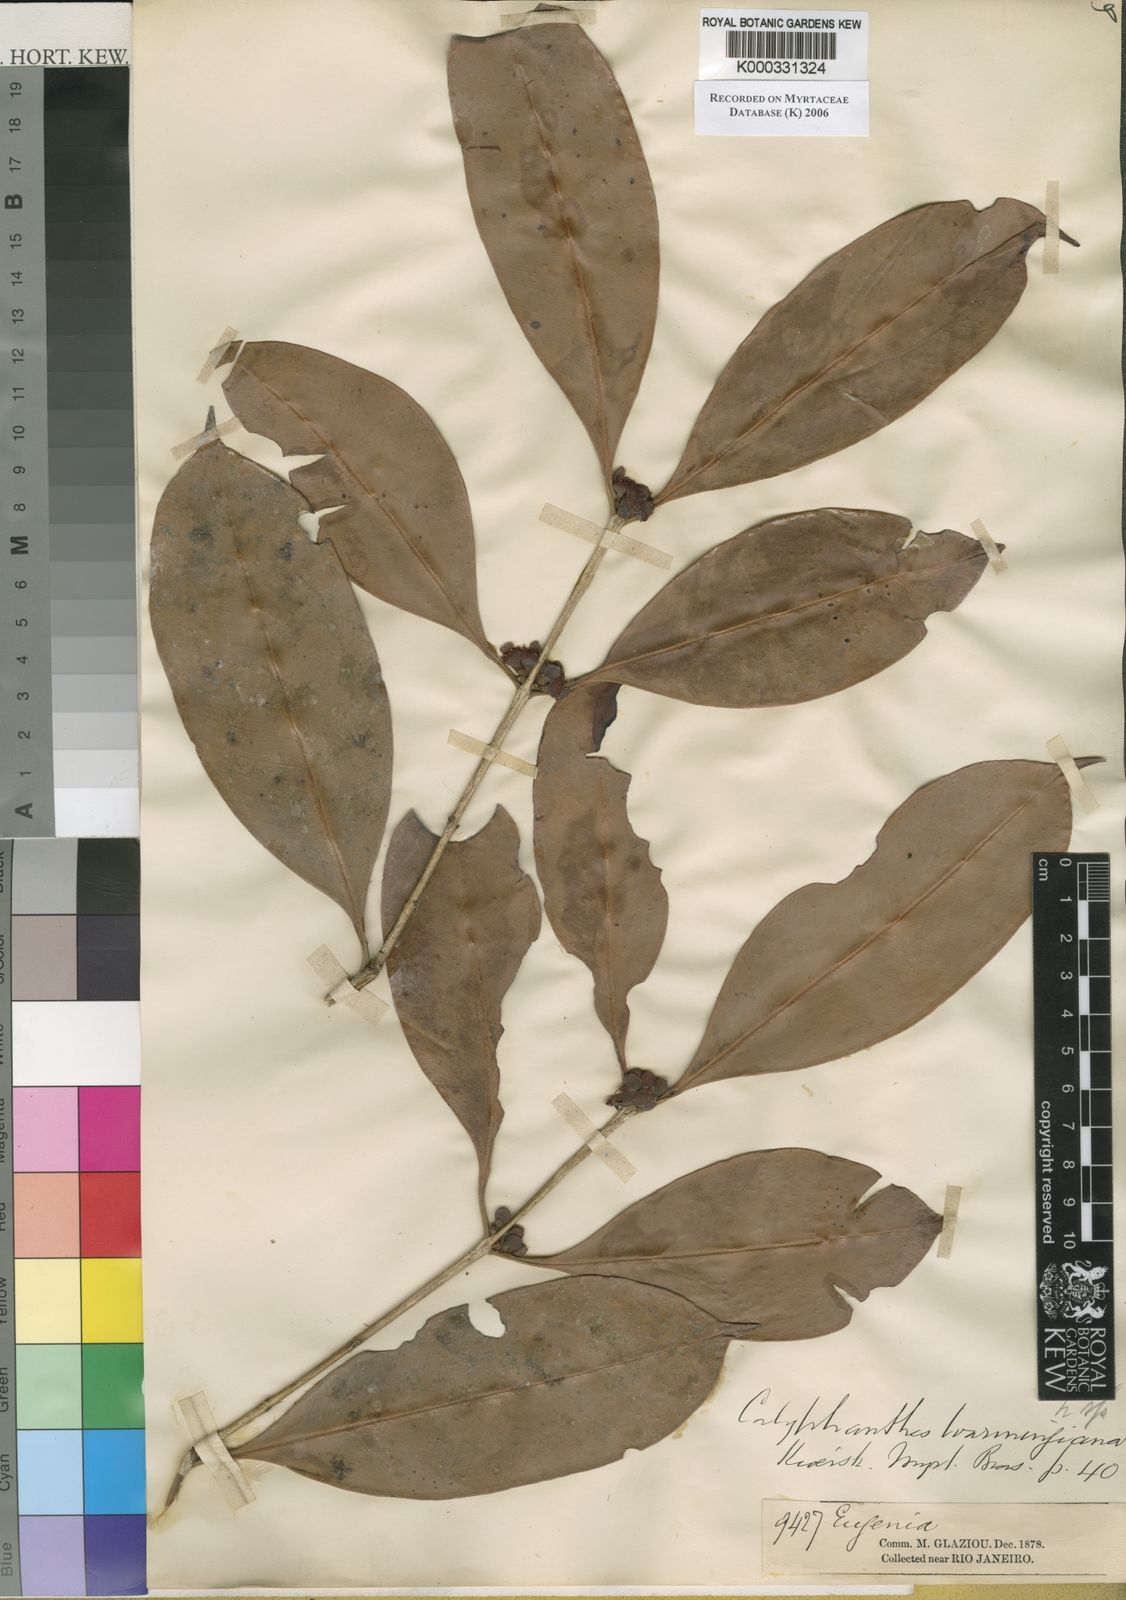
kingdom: Plantae
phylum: Tracheophyta
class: Magnoliopsida
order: Myrtales
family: Myrtaceae
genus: Neomitranthes
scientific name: Neomitranthes warmingiana
